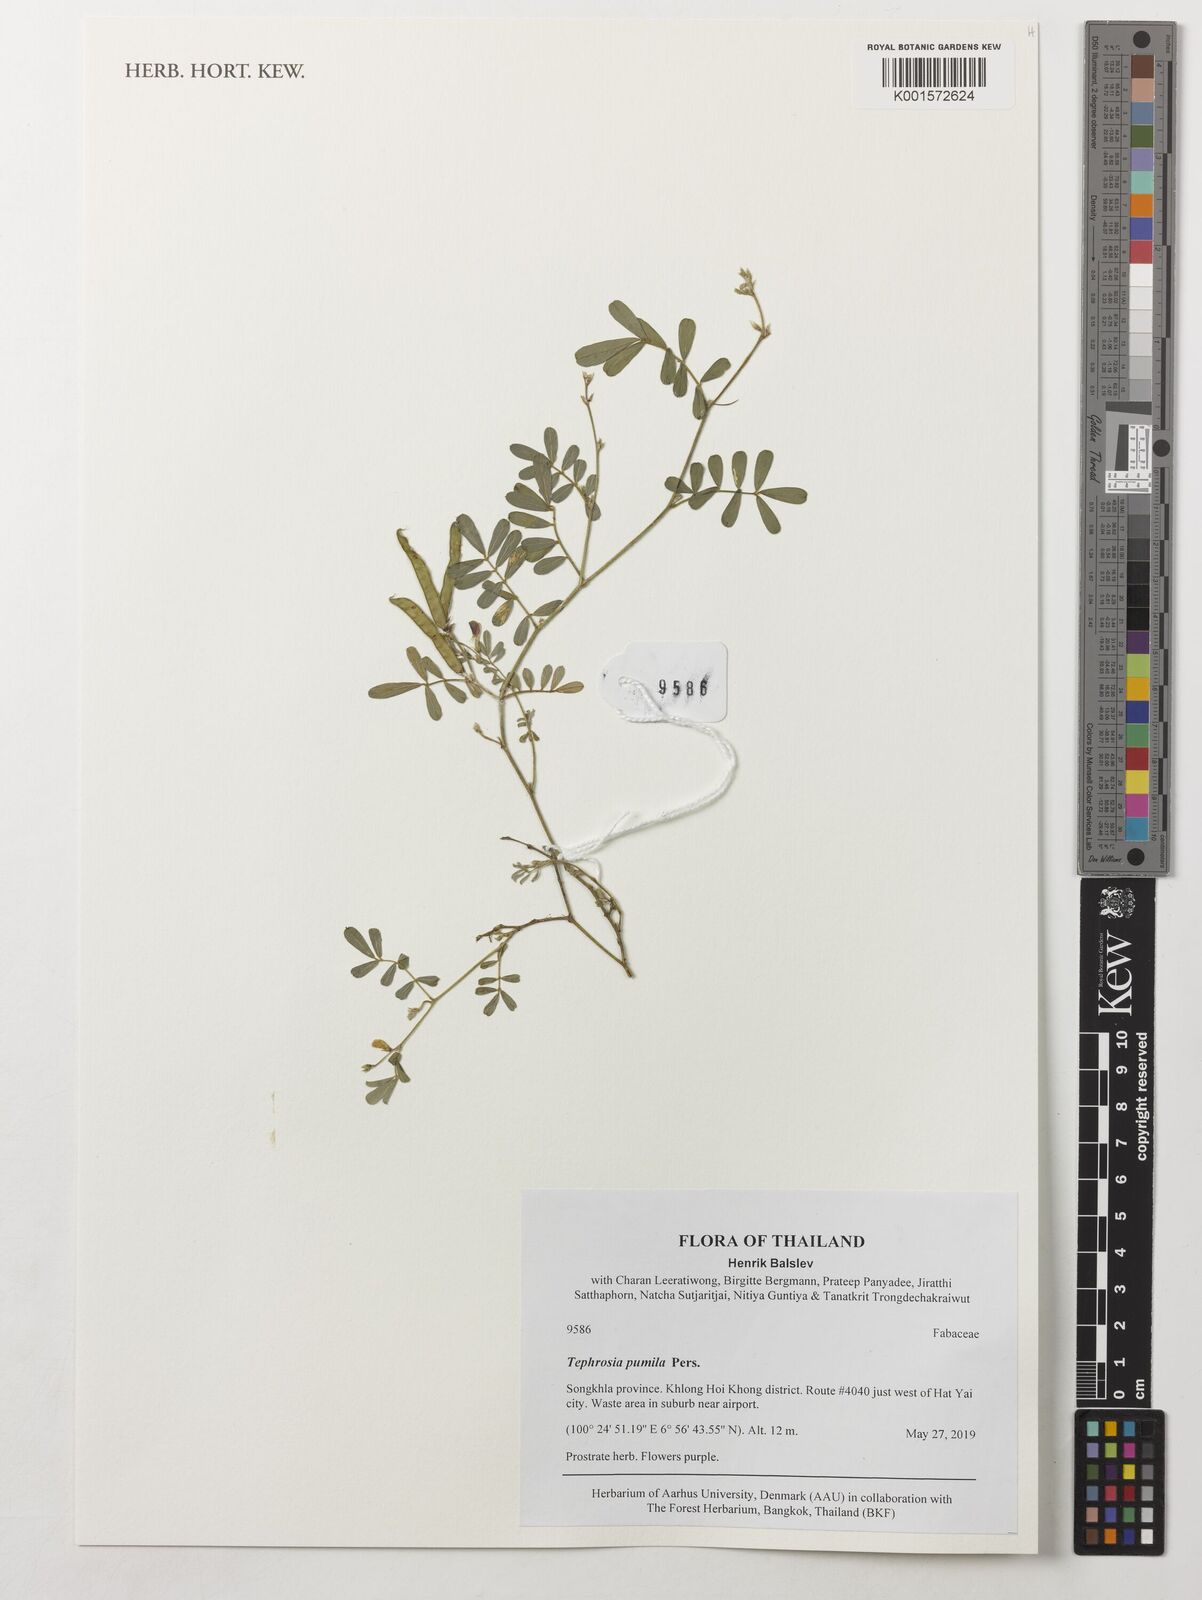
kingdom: Plantae
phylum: Tracheophyta
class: Magnoliopsida
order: Fabales
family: Fabaceae
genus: Tephrosia
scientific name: Tephrosia pumila
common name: Indigo sauvage
